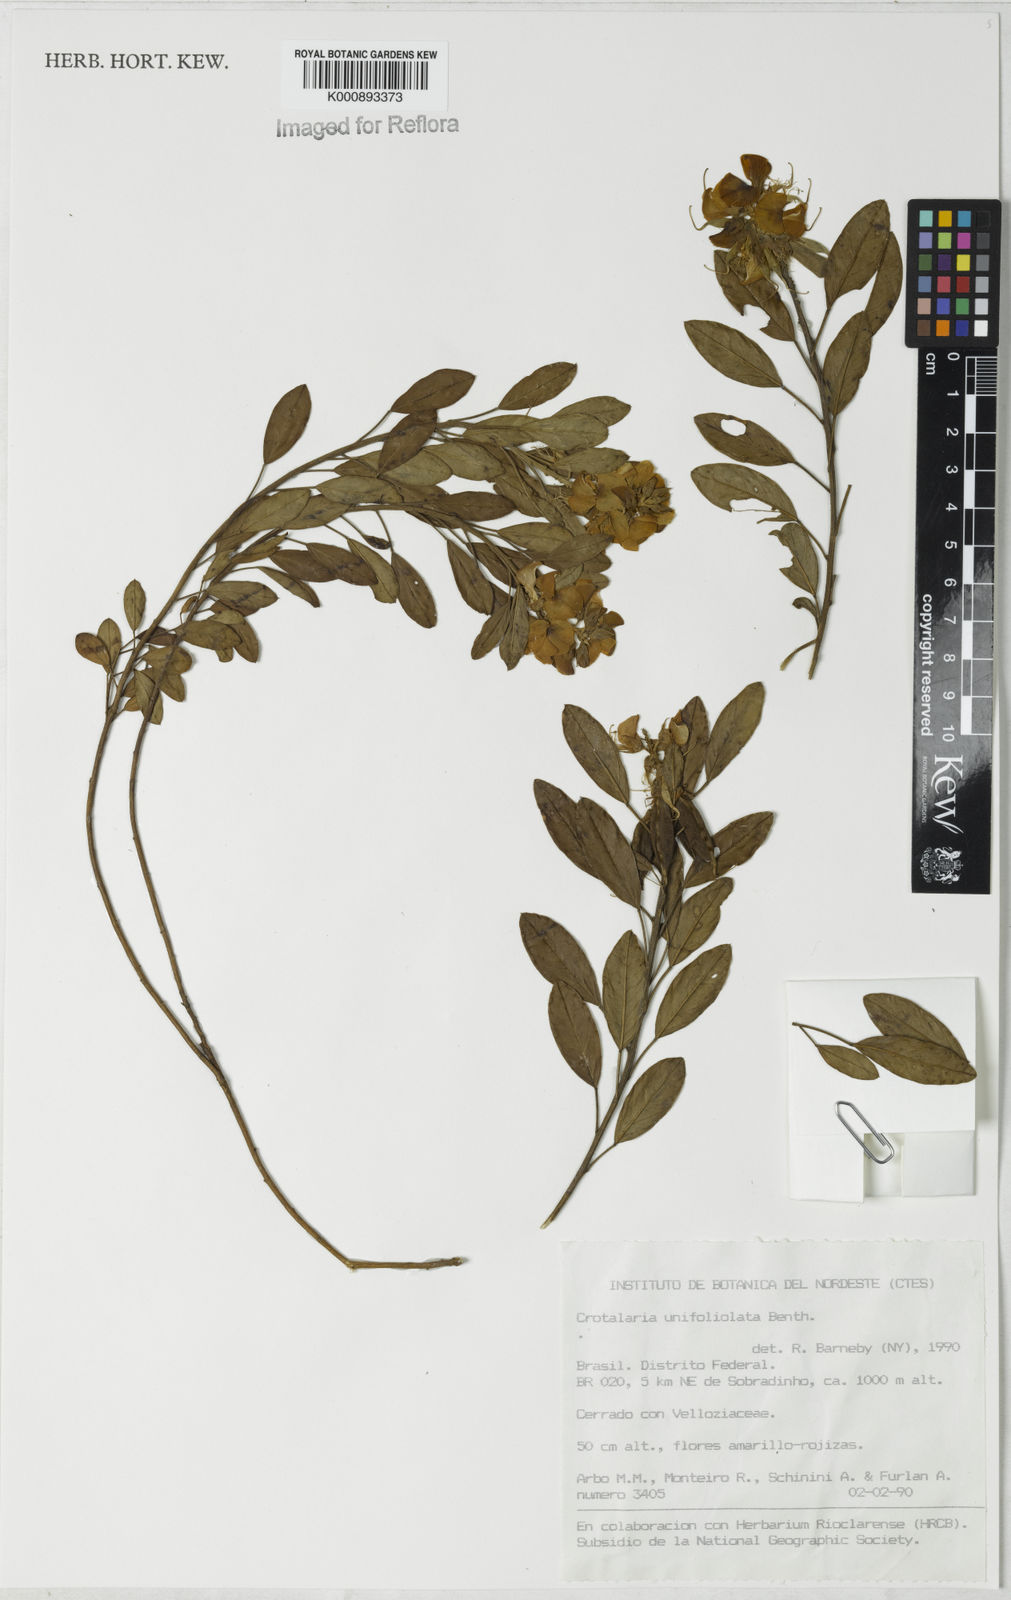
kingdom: Plantae
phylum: Tracheophyta
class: Magnoliopsida
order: Fabales
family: Fabaceae
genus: Crotalaria
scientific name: Crotalaria unifoliolata
